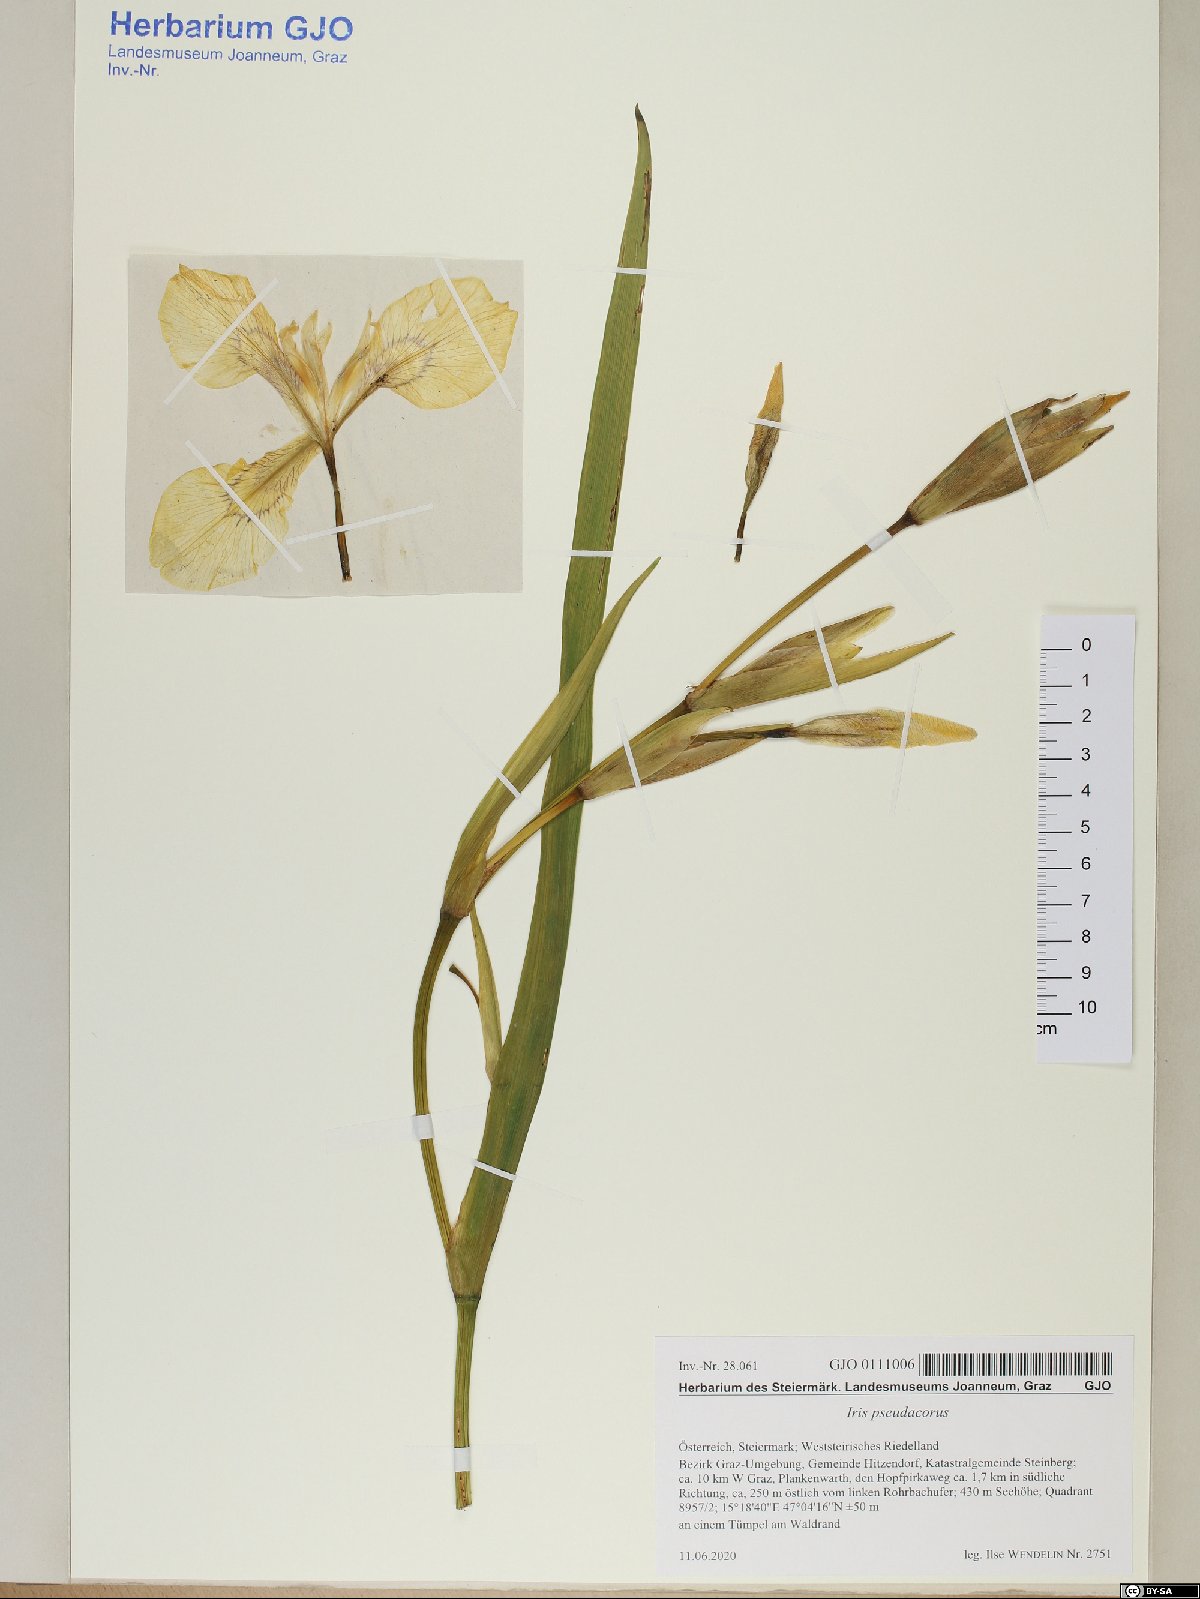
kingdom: Plantae
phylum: Tracheophyta
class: Liliopsida
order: Asparagales
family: Iridaceae
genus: Iris
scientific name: Iris pseudacorus
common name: Yellow flag
